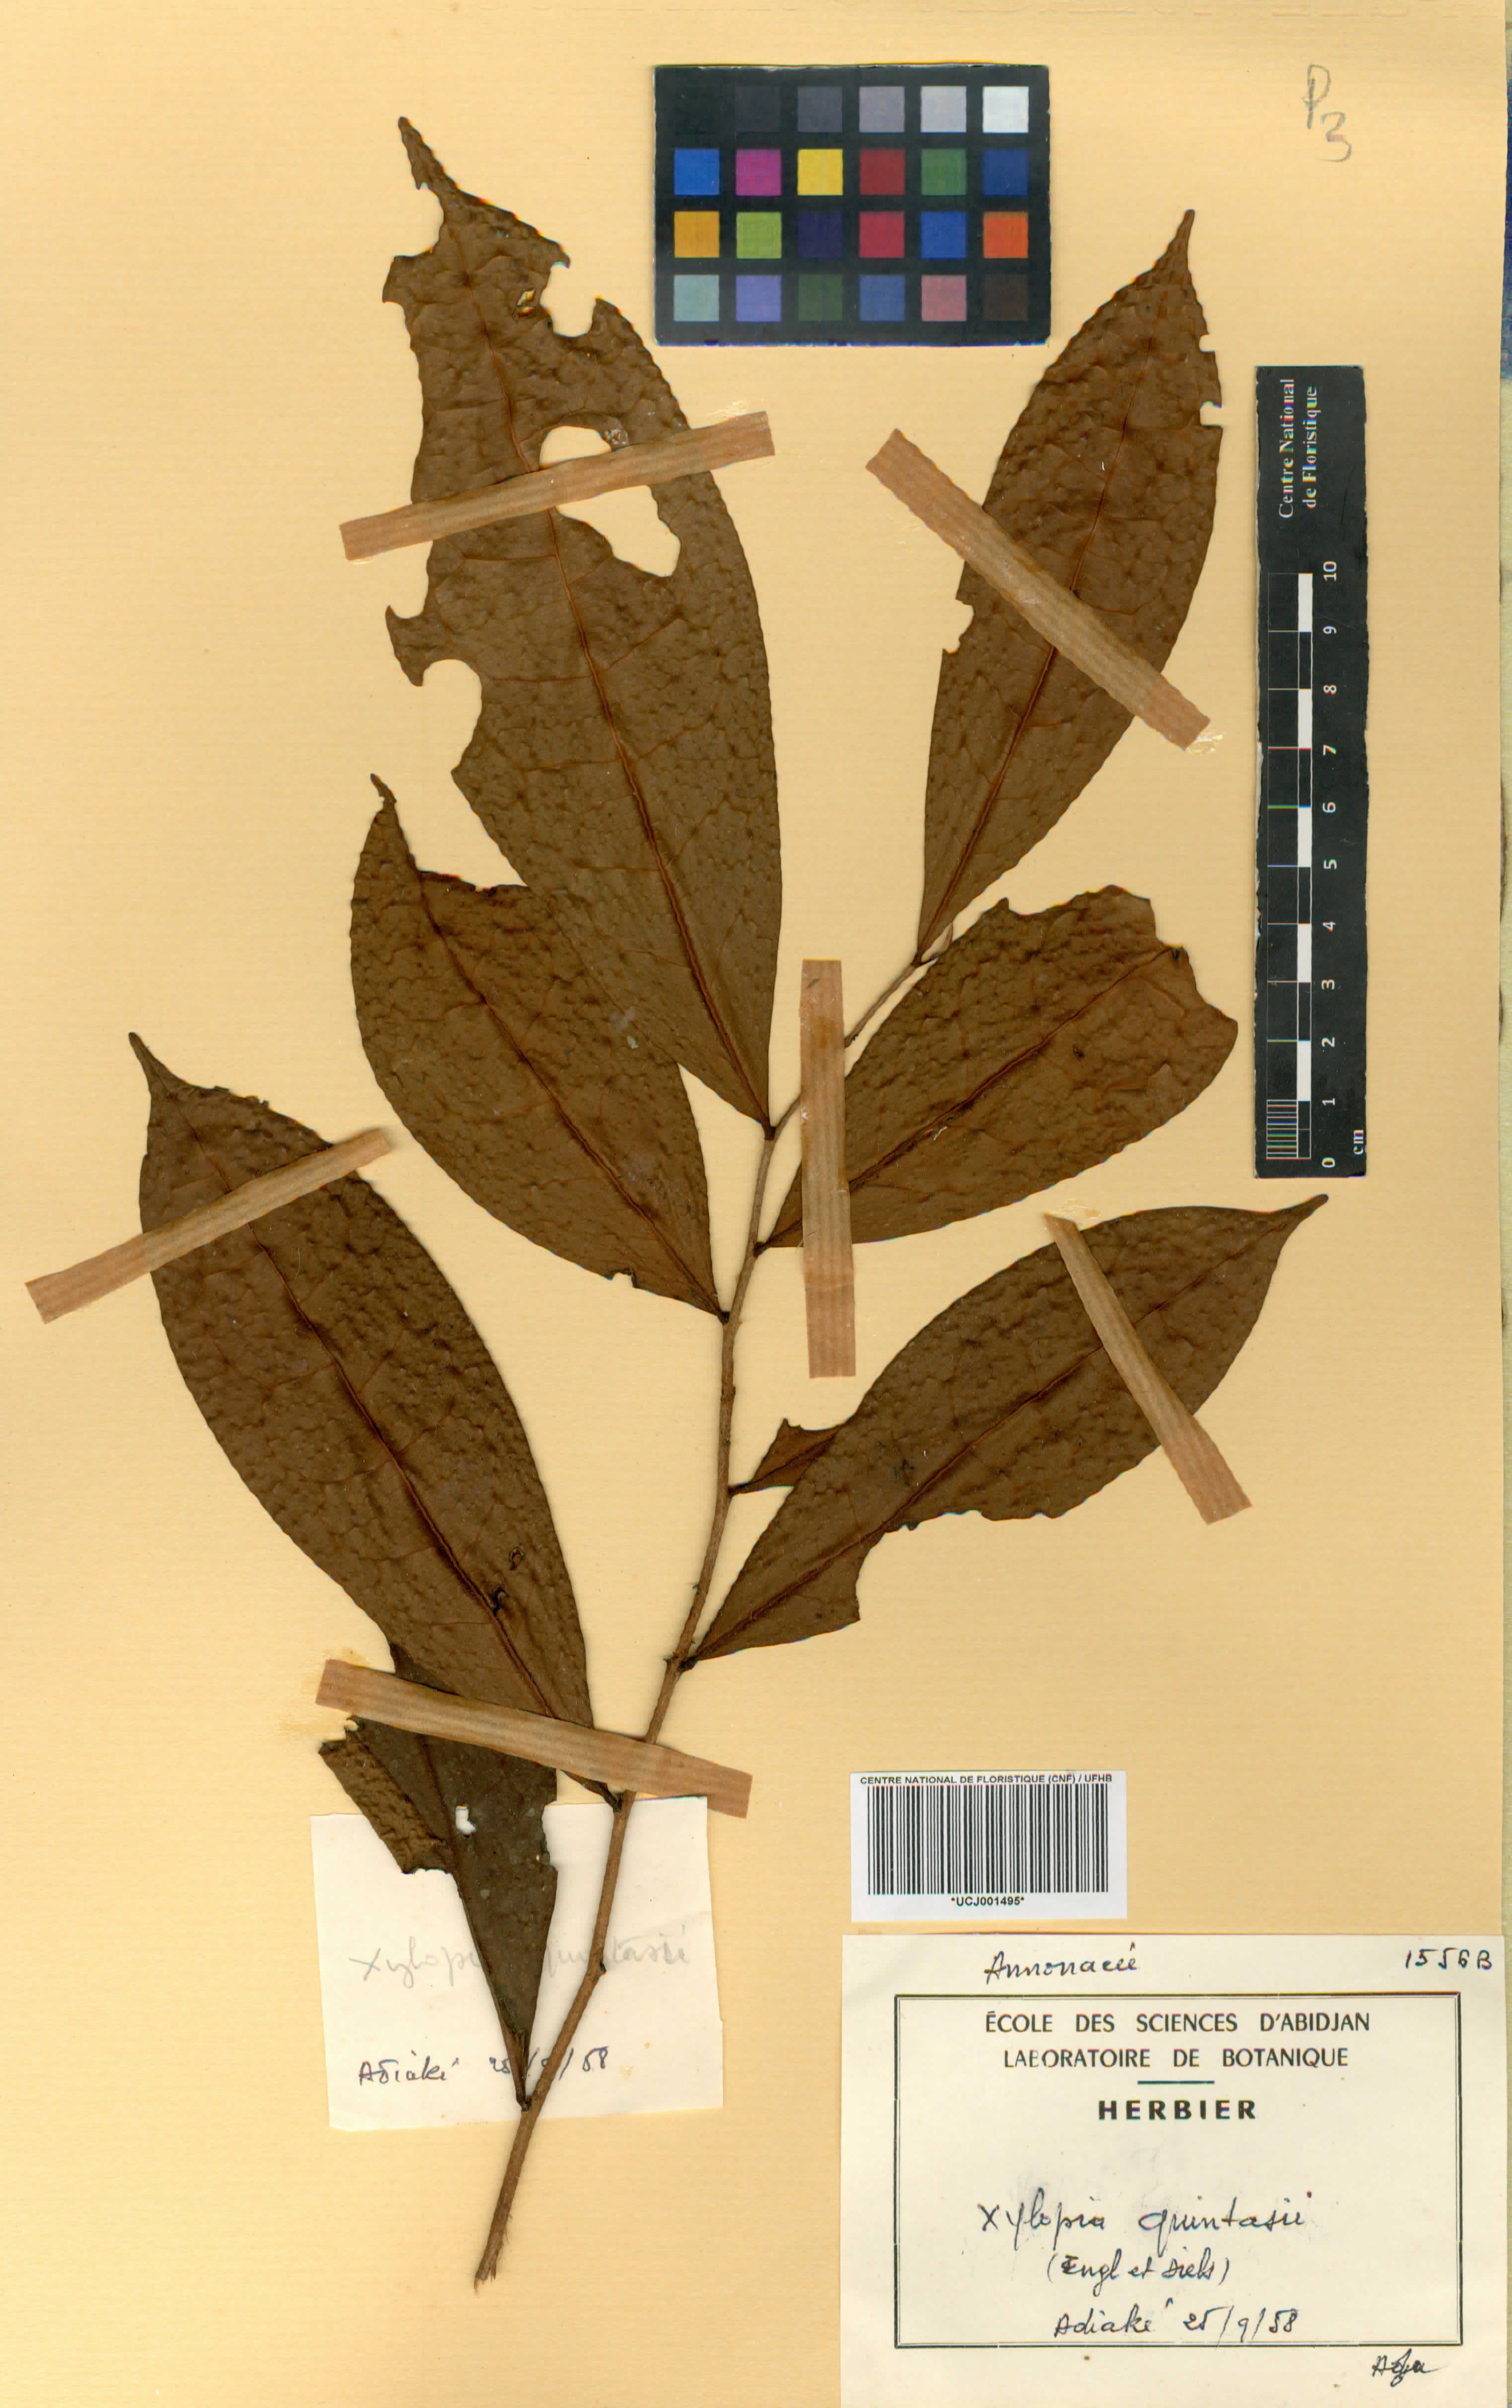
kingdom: Plantae
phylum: Tracheophyta
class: Magnoliopsida
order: Magnoliales
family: Annonaceae
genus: Xylopia
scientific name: Xylopia quintasii
